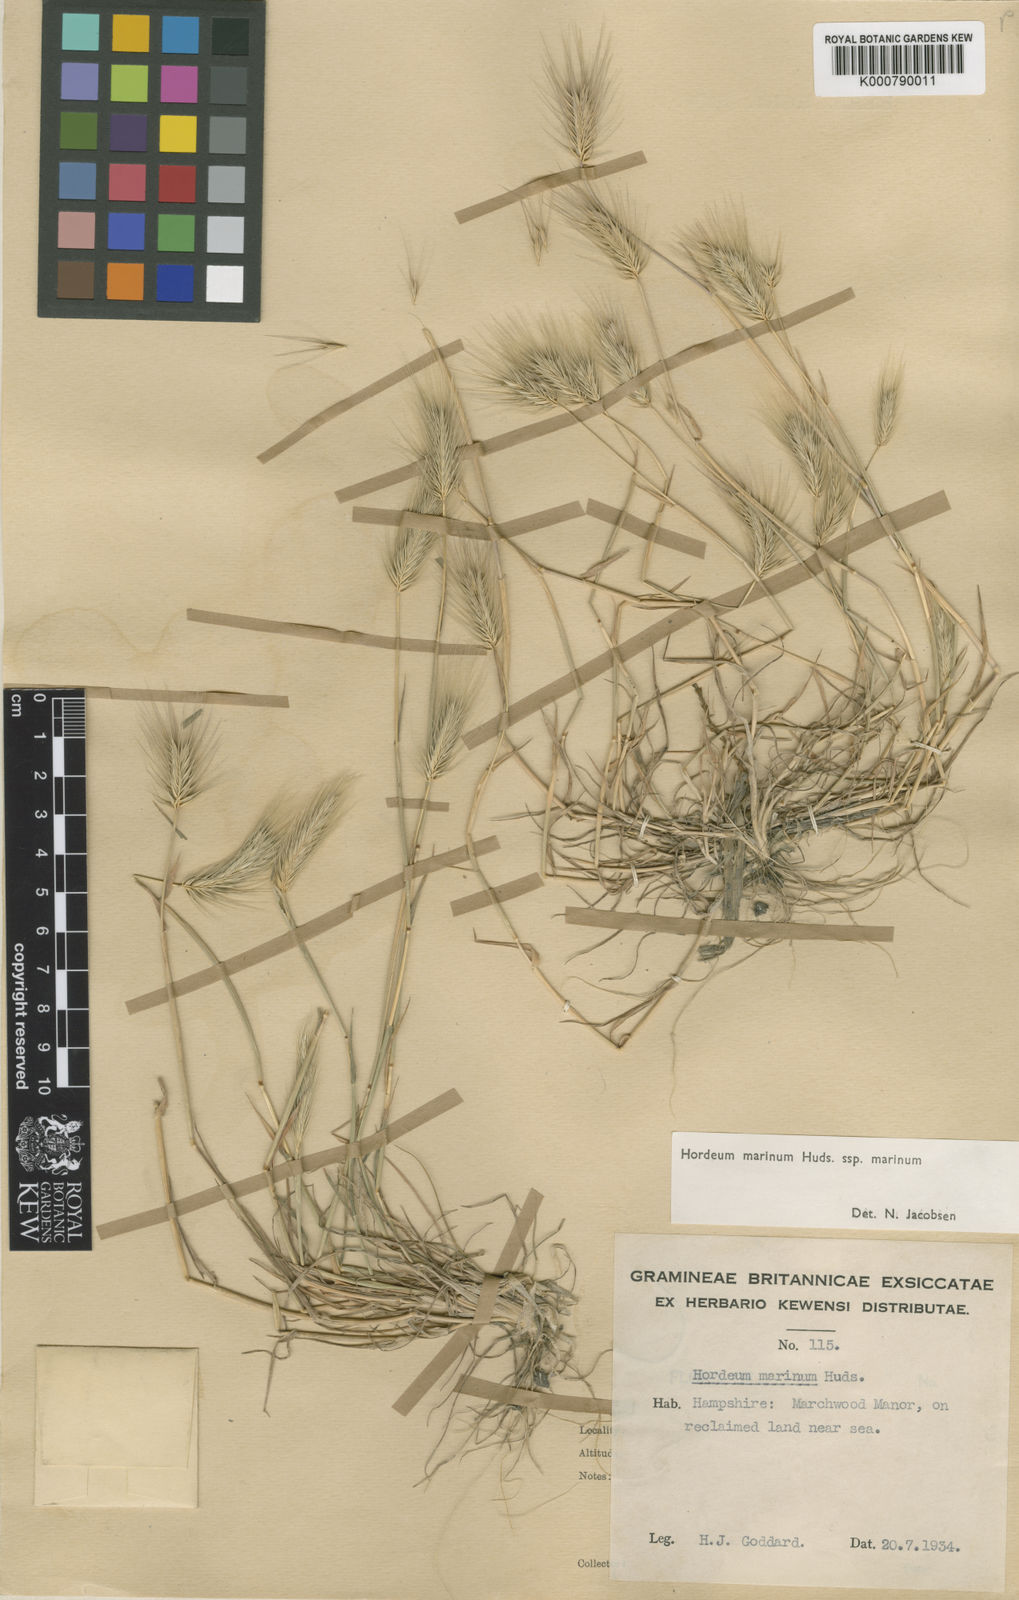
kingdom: Plantae
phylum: Tracheophyta
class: Liliopsida
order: Poales
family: Poaceae
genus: Hordeum
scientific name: Hordeum marinum
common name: Sea barley
